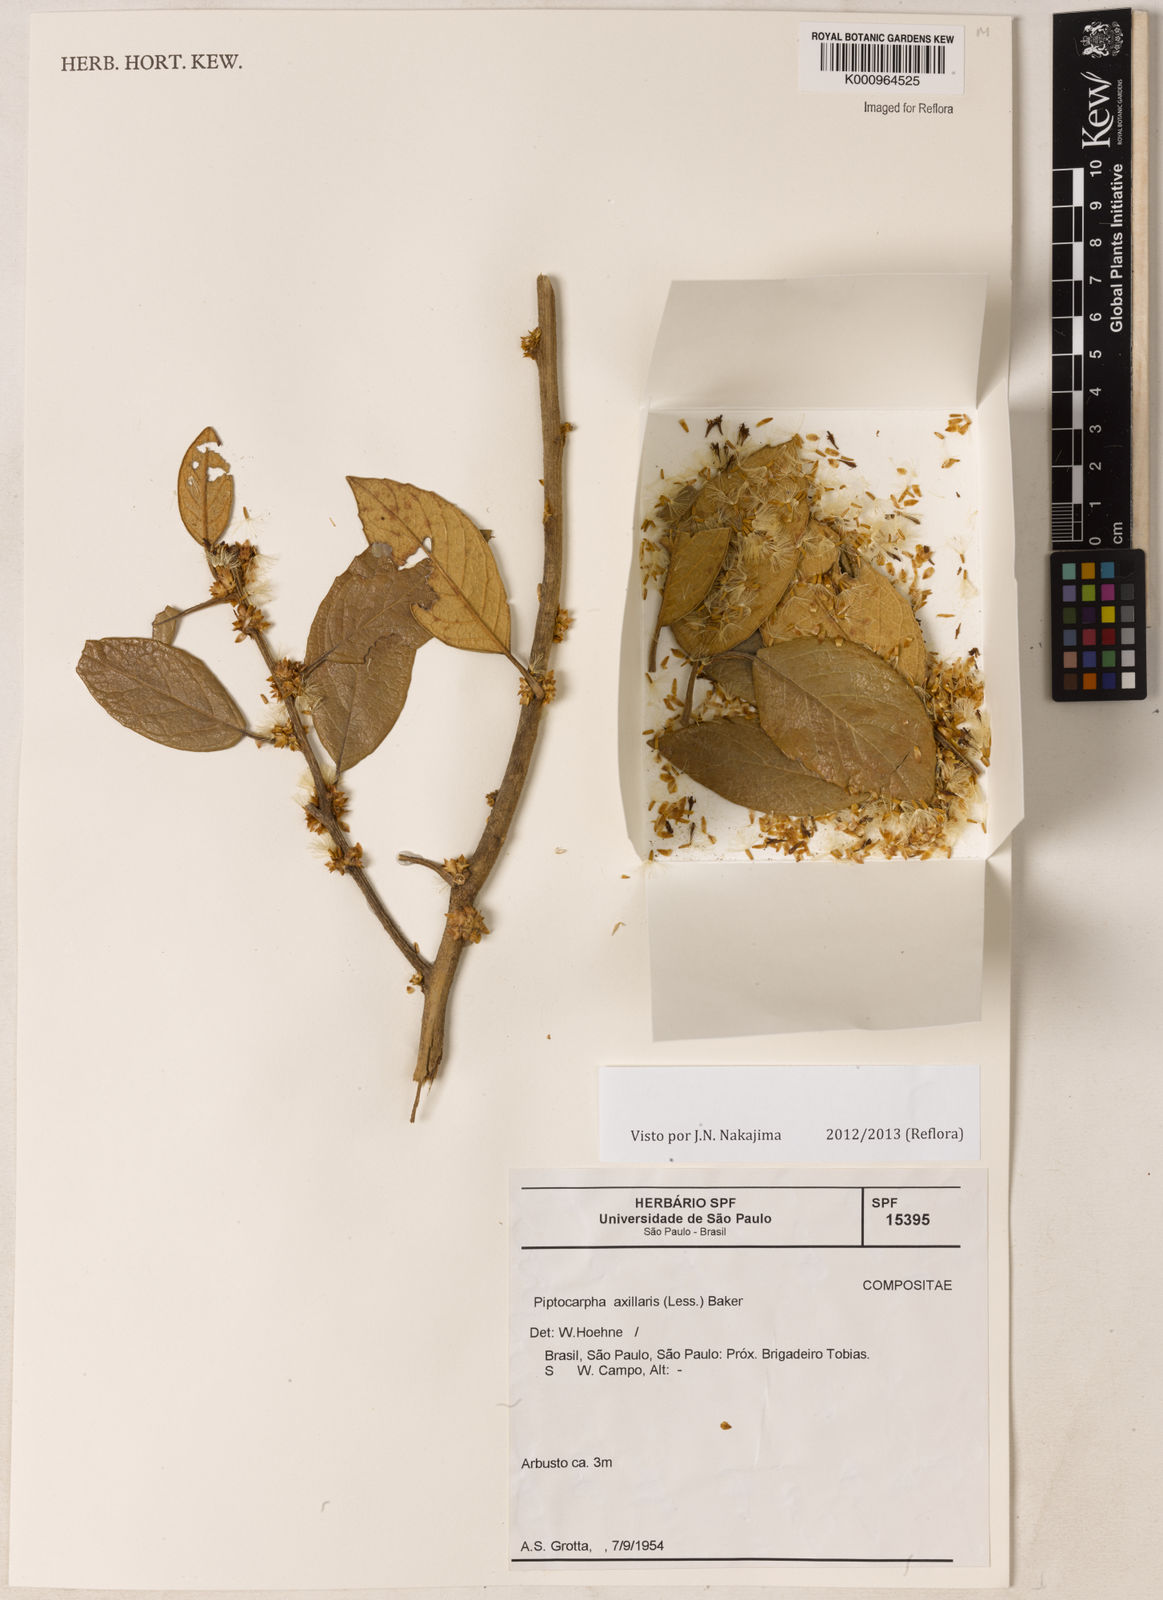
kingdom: Plantae
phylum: Tracheophyta
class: Magnoliopsida
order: Asterales
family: Asteraceae
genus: Piptocarpha
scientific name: Piptocarpha axillaris
